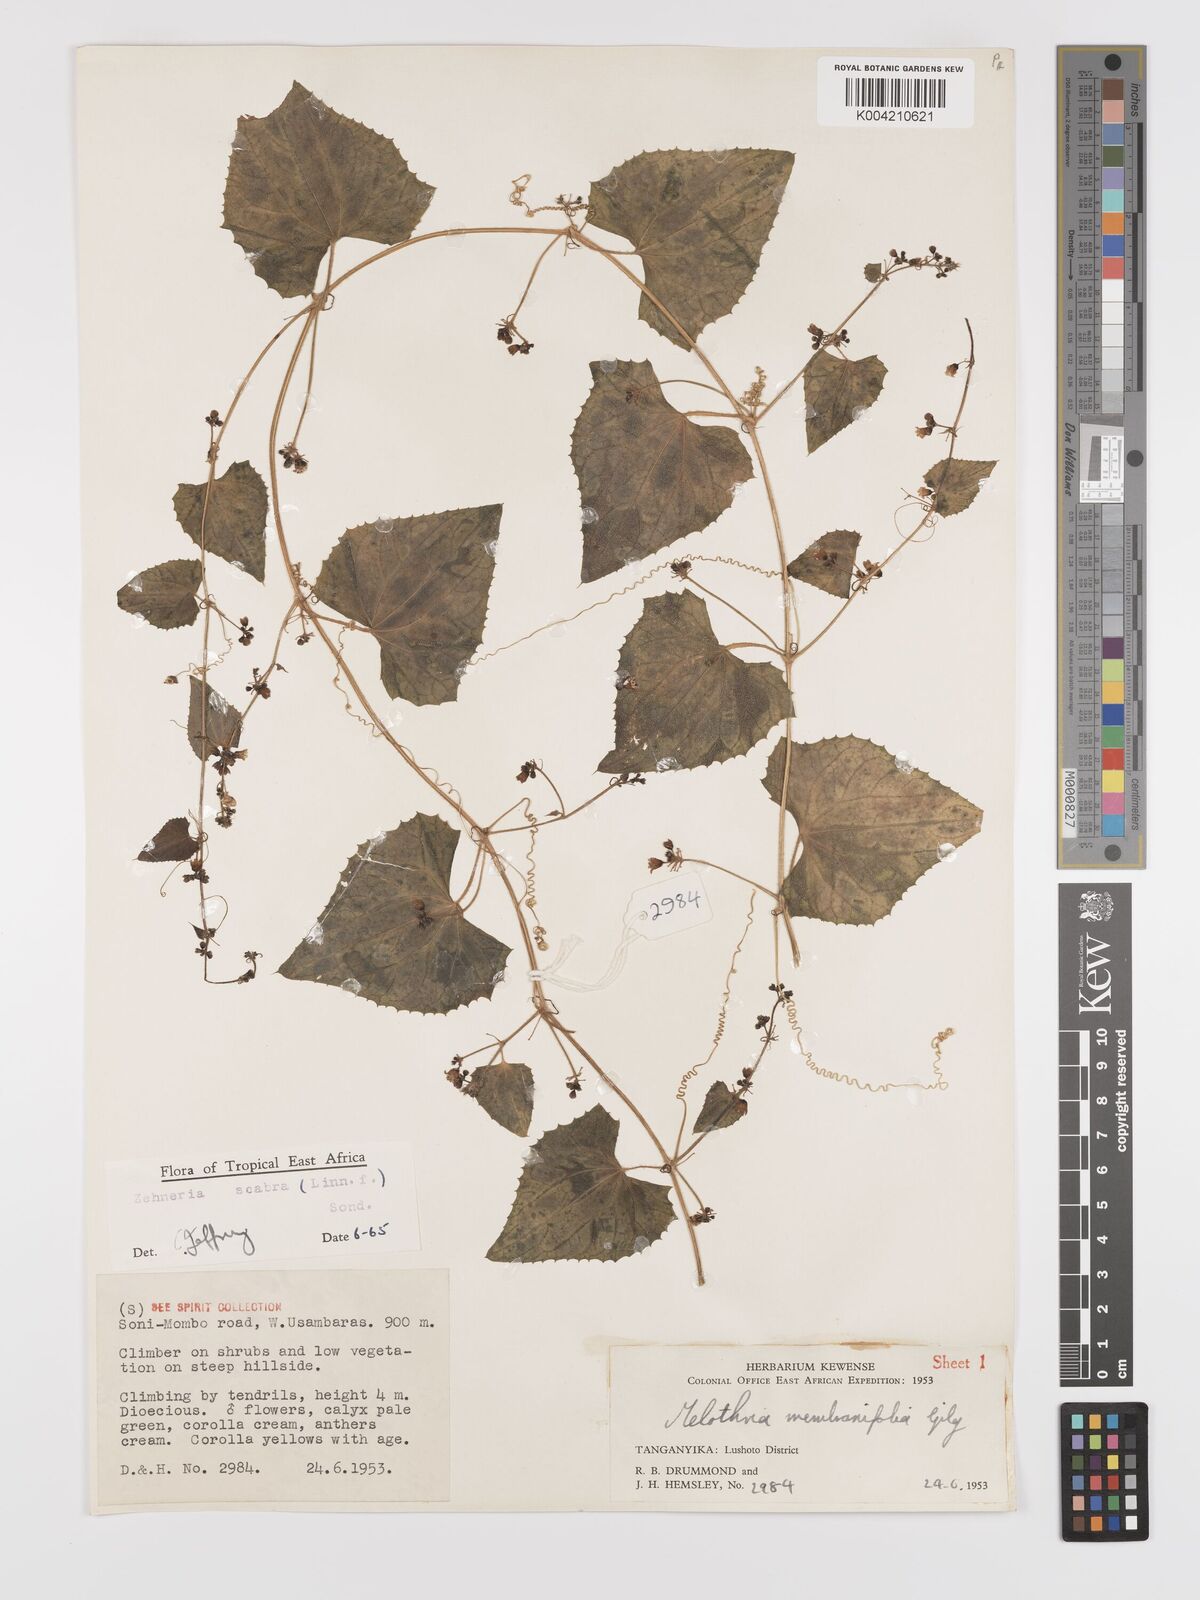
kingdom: Plantae
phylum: Tracheophyta
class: Magnoliopsida
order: Cucurbitales
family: Cucurbitaceae
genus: Zehneria
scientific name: Zehneria scabra
